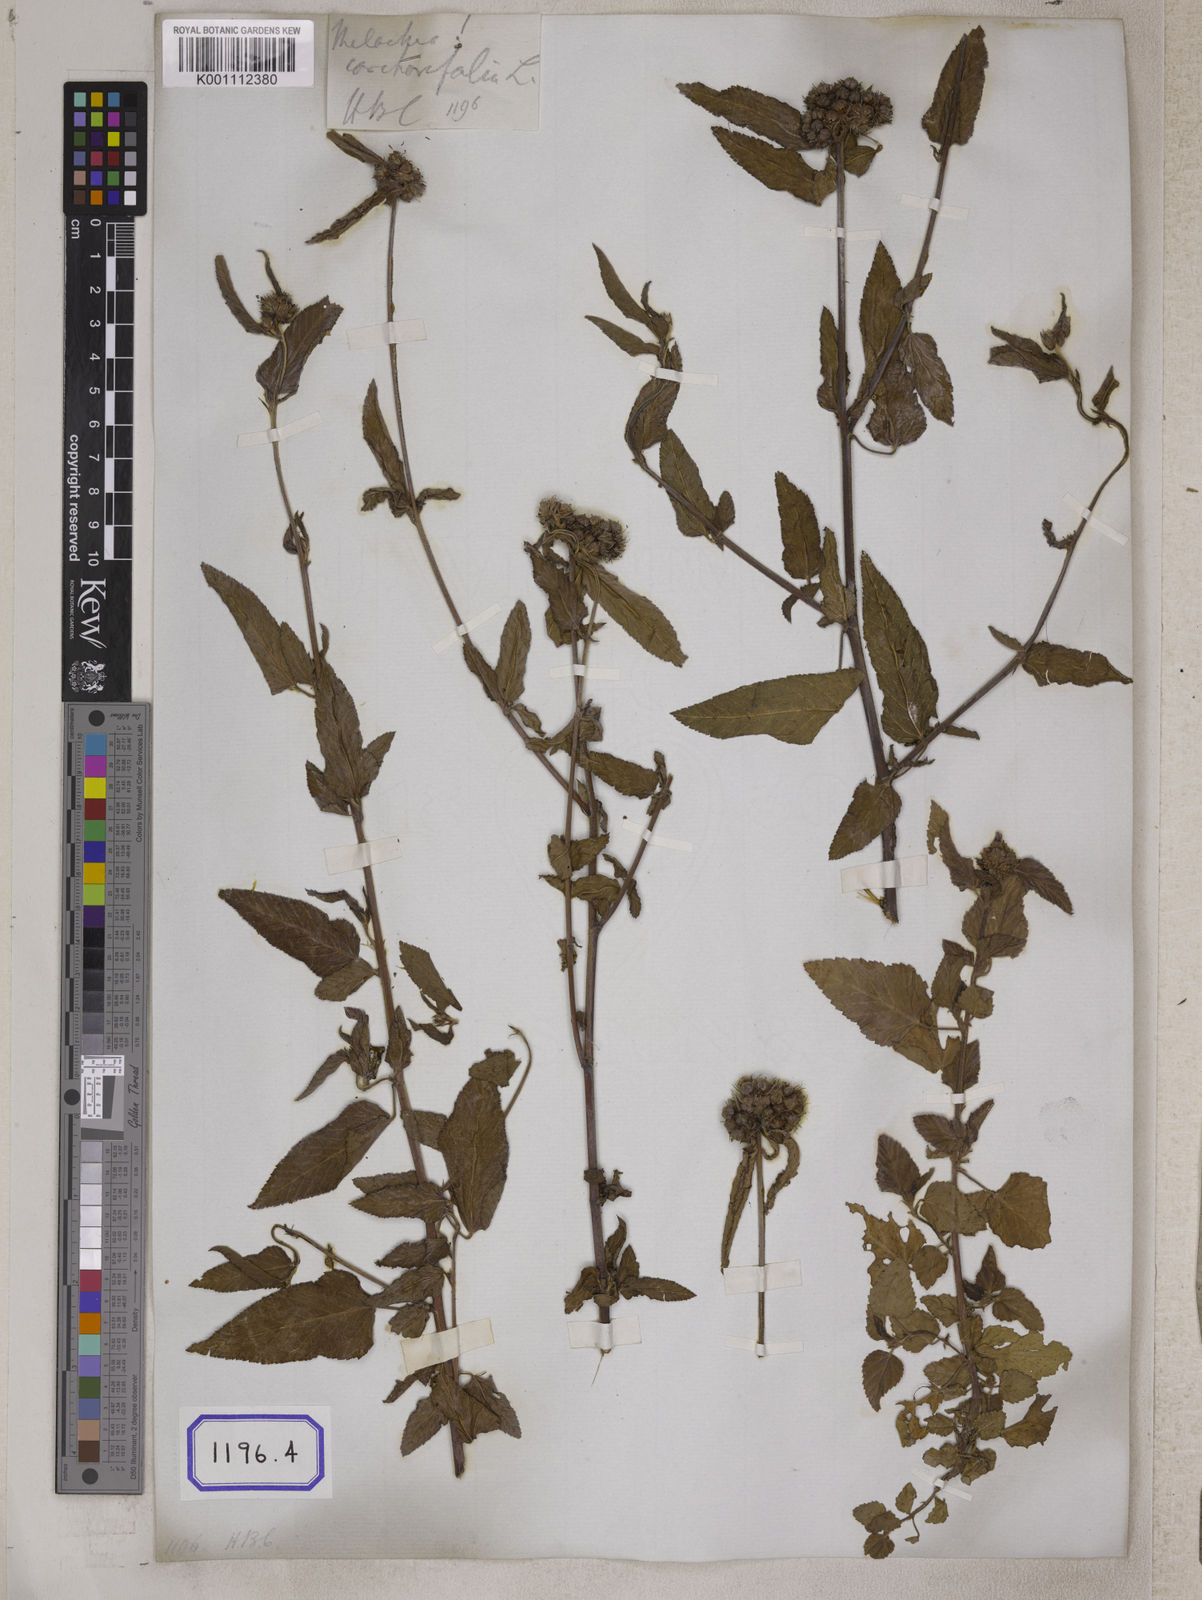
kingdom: Plantae
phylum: Tracheophyta
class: Magnoliopsida
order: Malvales
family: Malvaceae
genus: Melochia
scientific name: Melochia corchorifolia
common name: Chocolateweed
